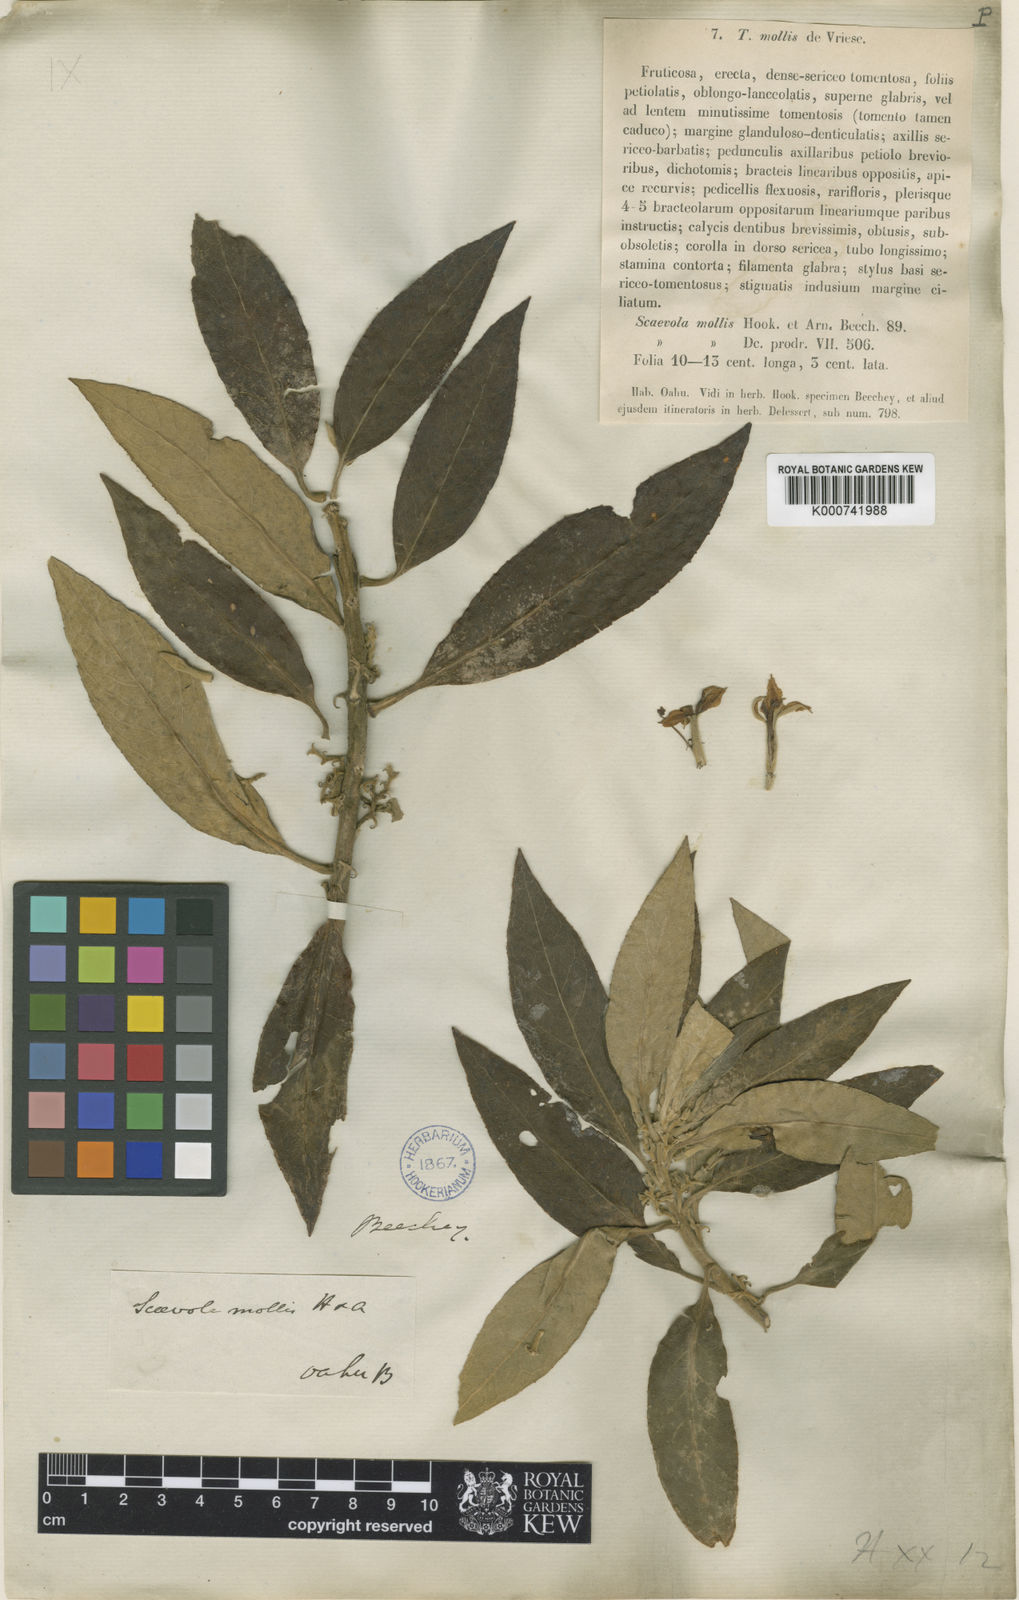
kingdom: Plantae
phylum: Tracheophyta
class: Magnoliopsida
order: Asterales
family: Goodeniaceae
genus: Scaevola
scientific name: Scaevola mollis
